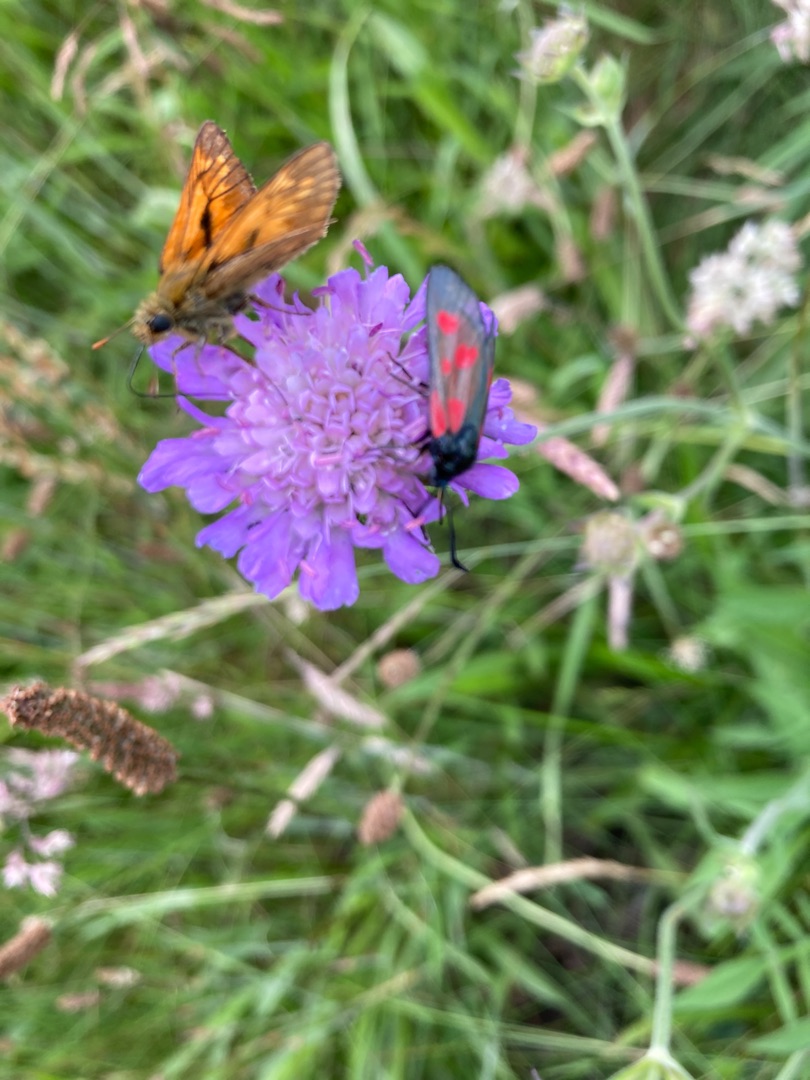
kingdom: Animalia
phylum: Arthropoda
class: Insecta
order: Lepidoptera
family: Hesperiidae
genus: Ochlodes
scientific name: Ochlodes venata
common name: Stor bredpande
